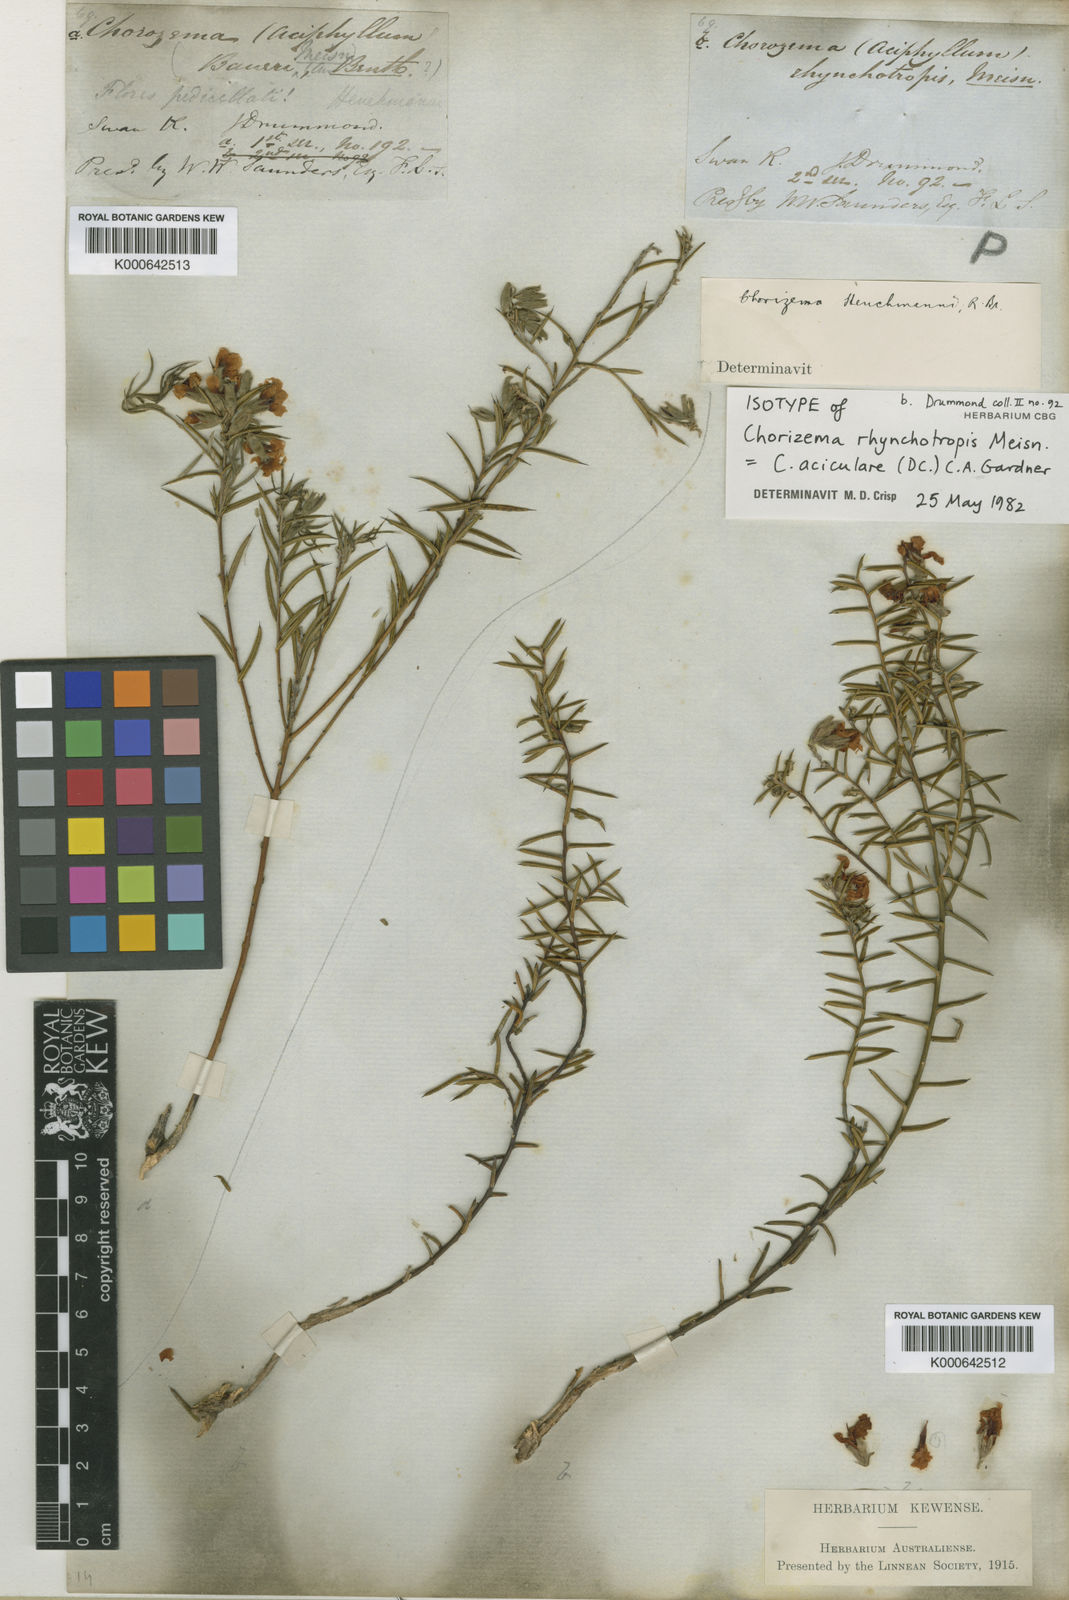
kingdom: Plantae
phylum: Tracheophyta
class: Magnoliopsida
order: Fabales
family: Fabaceae
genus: Chorizema
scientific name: Chorizema aciculare
